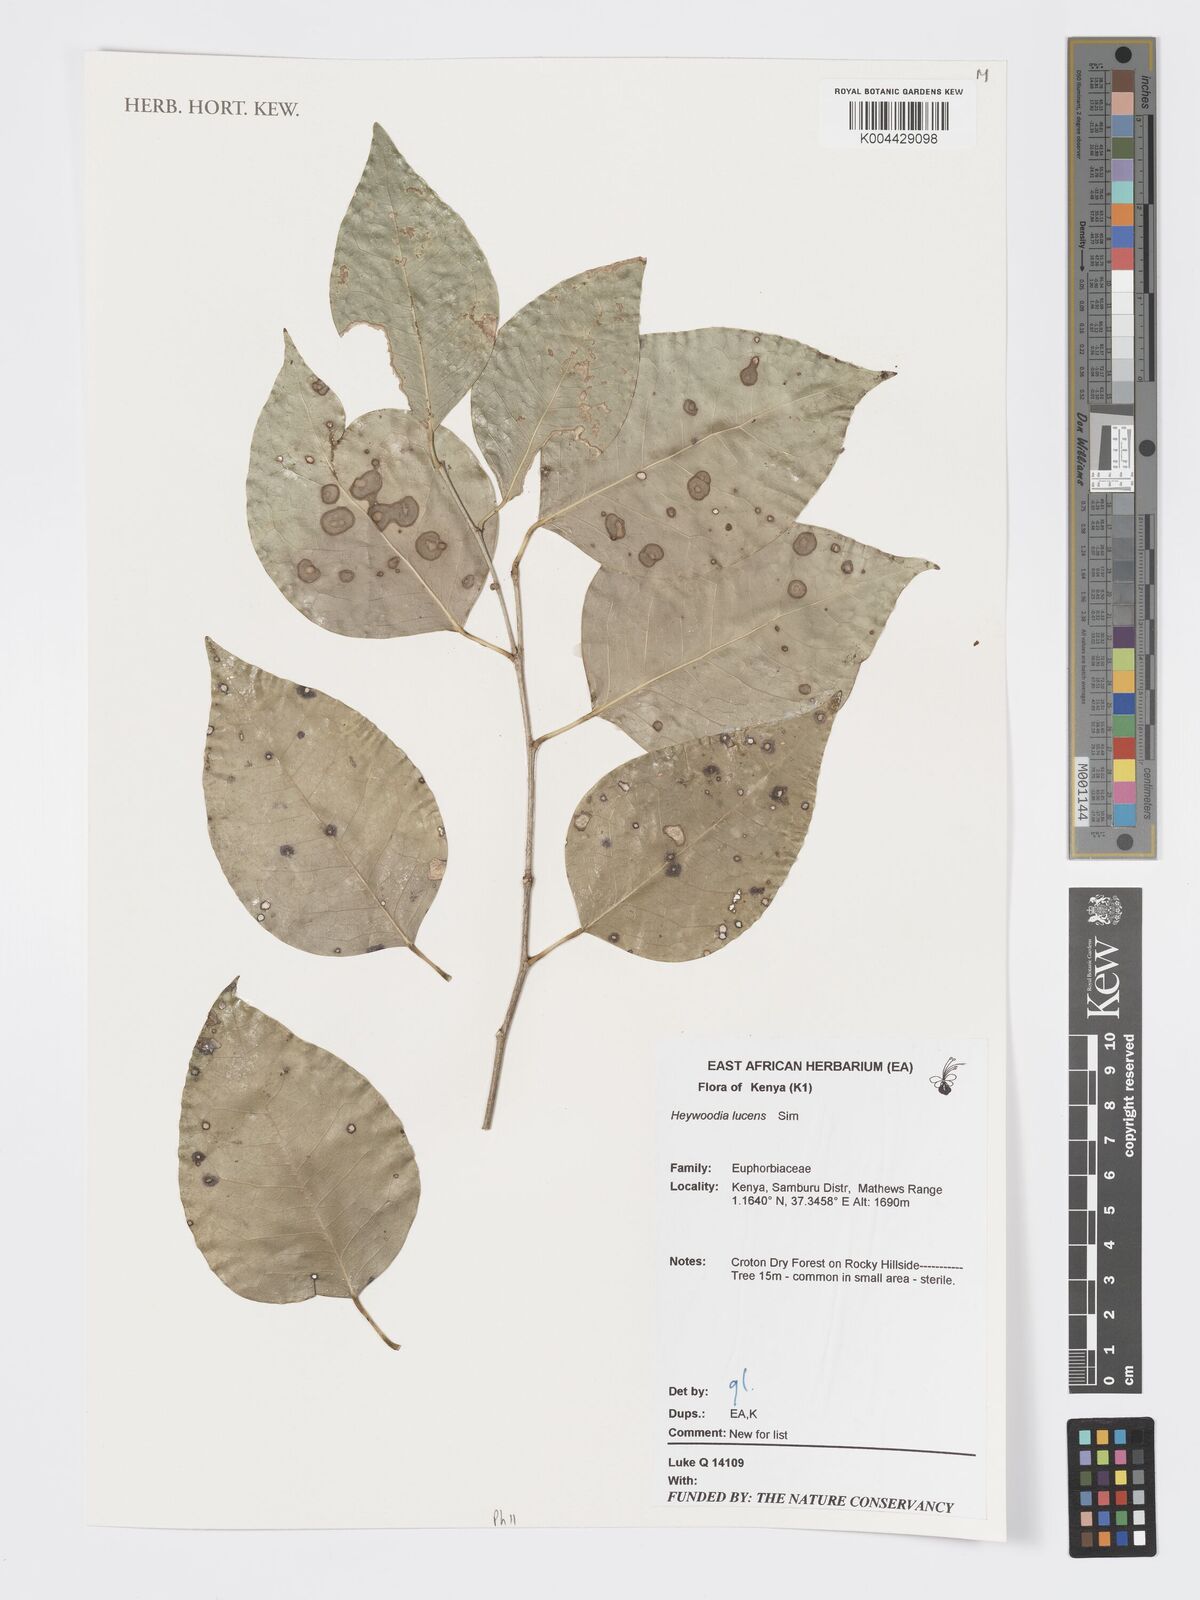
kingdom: Plantae
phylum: Tracheophyta
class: Magnoliopsida
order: Malpighiales
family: Phyllanthaceae
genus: Heywoodia
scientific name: Heywoodia lucens
